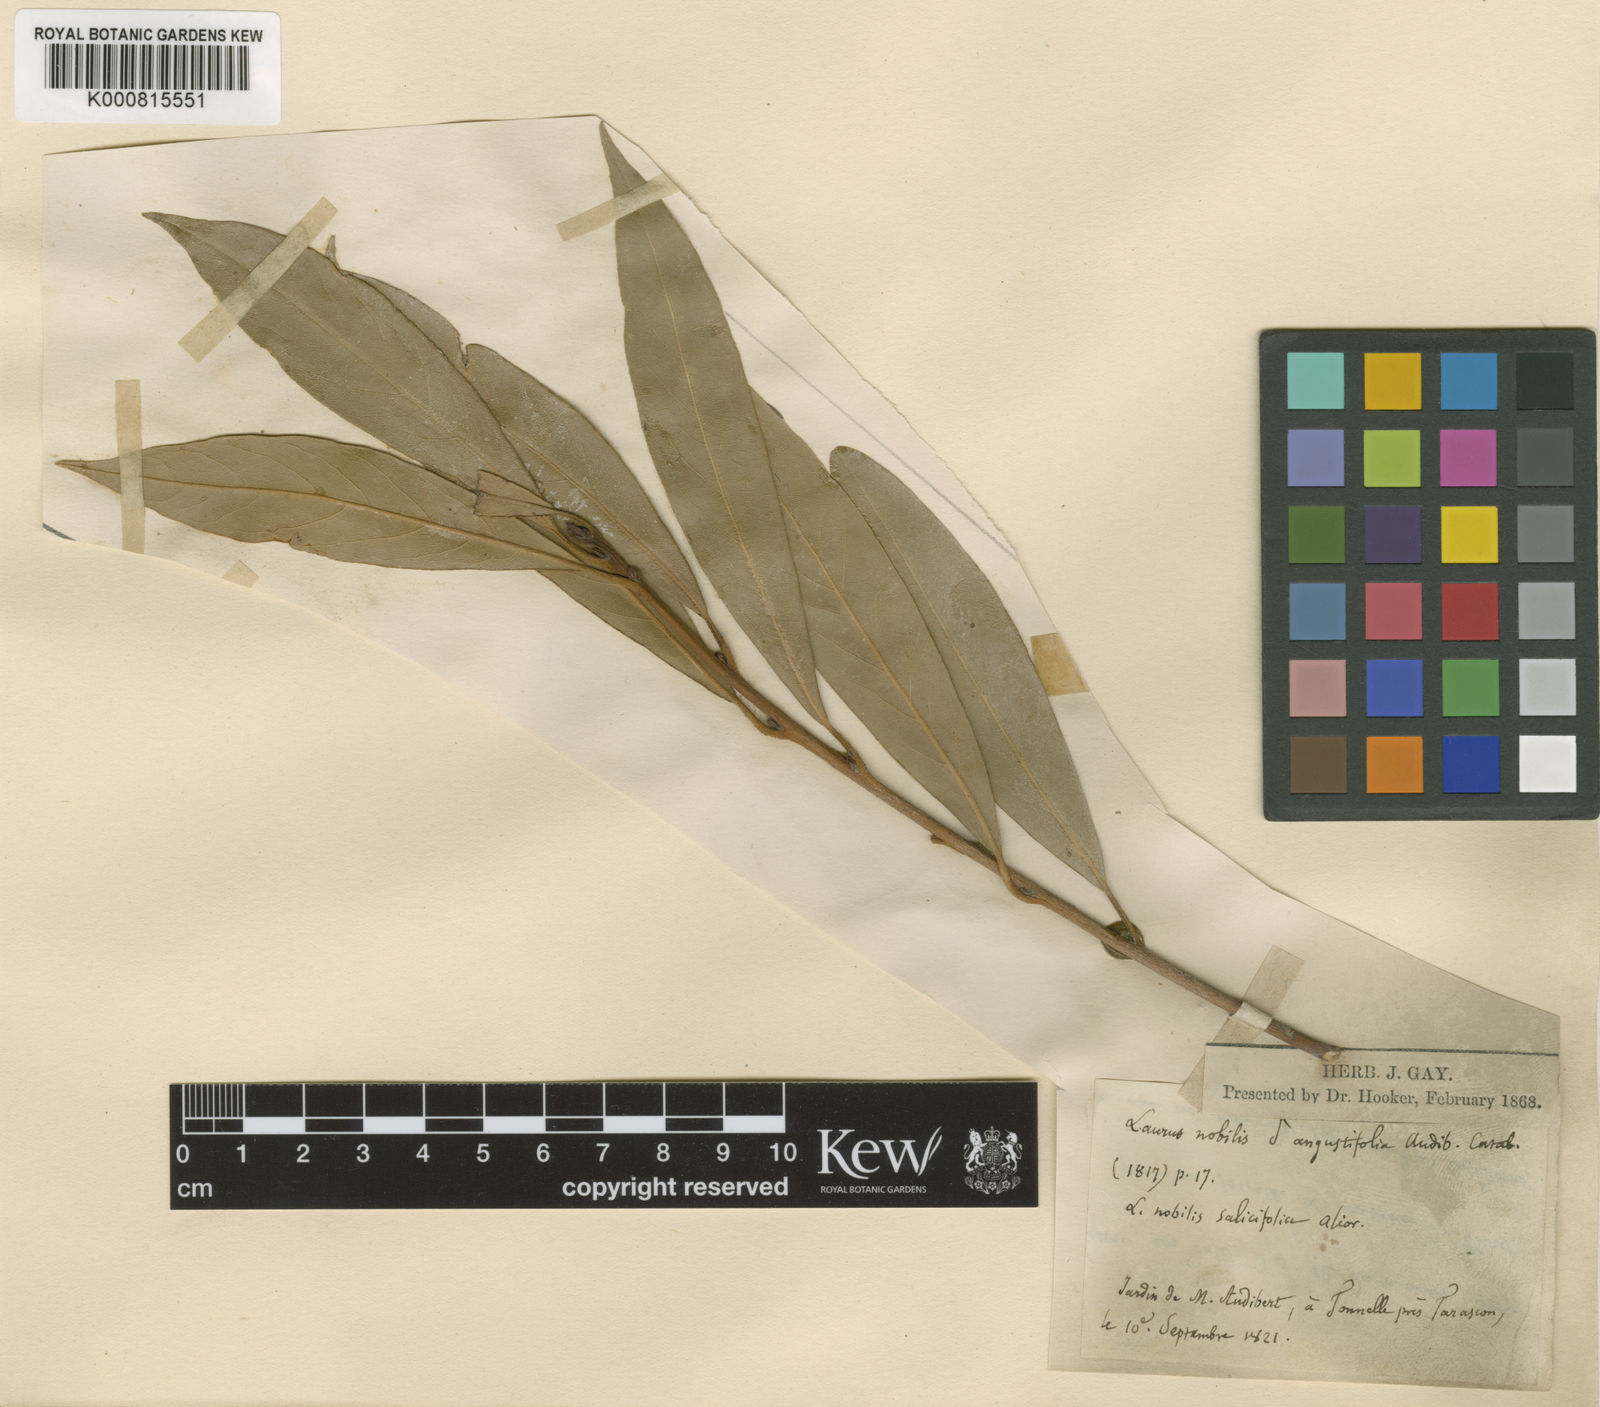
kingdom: Plantae
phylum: Tracheophyta
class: Magnoliopsida
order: Laurales
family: Lauraceae
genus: Laurus
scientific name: Laurus nobilis
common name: Bay
